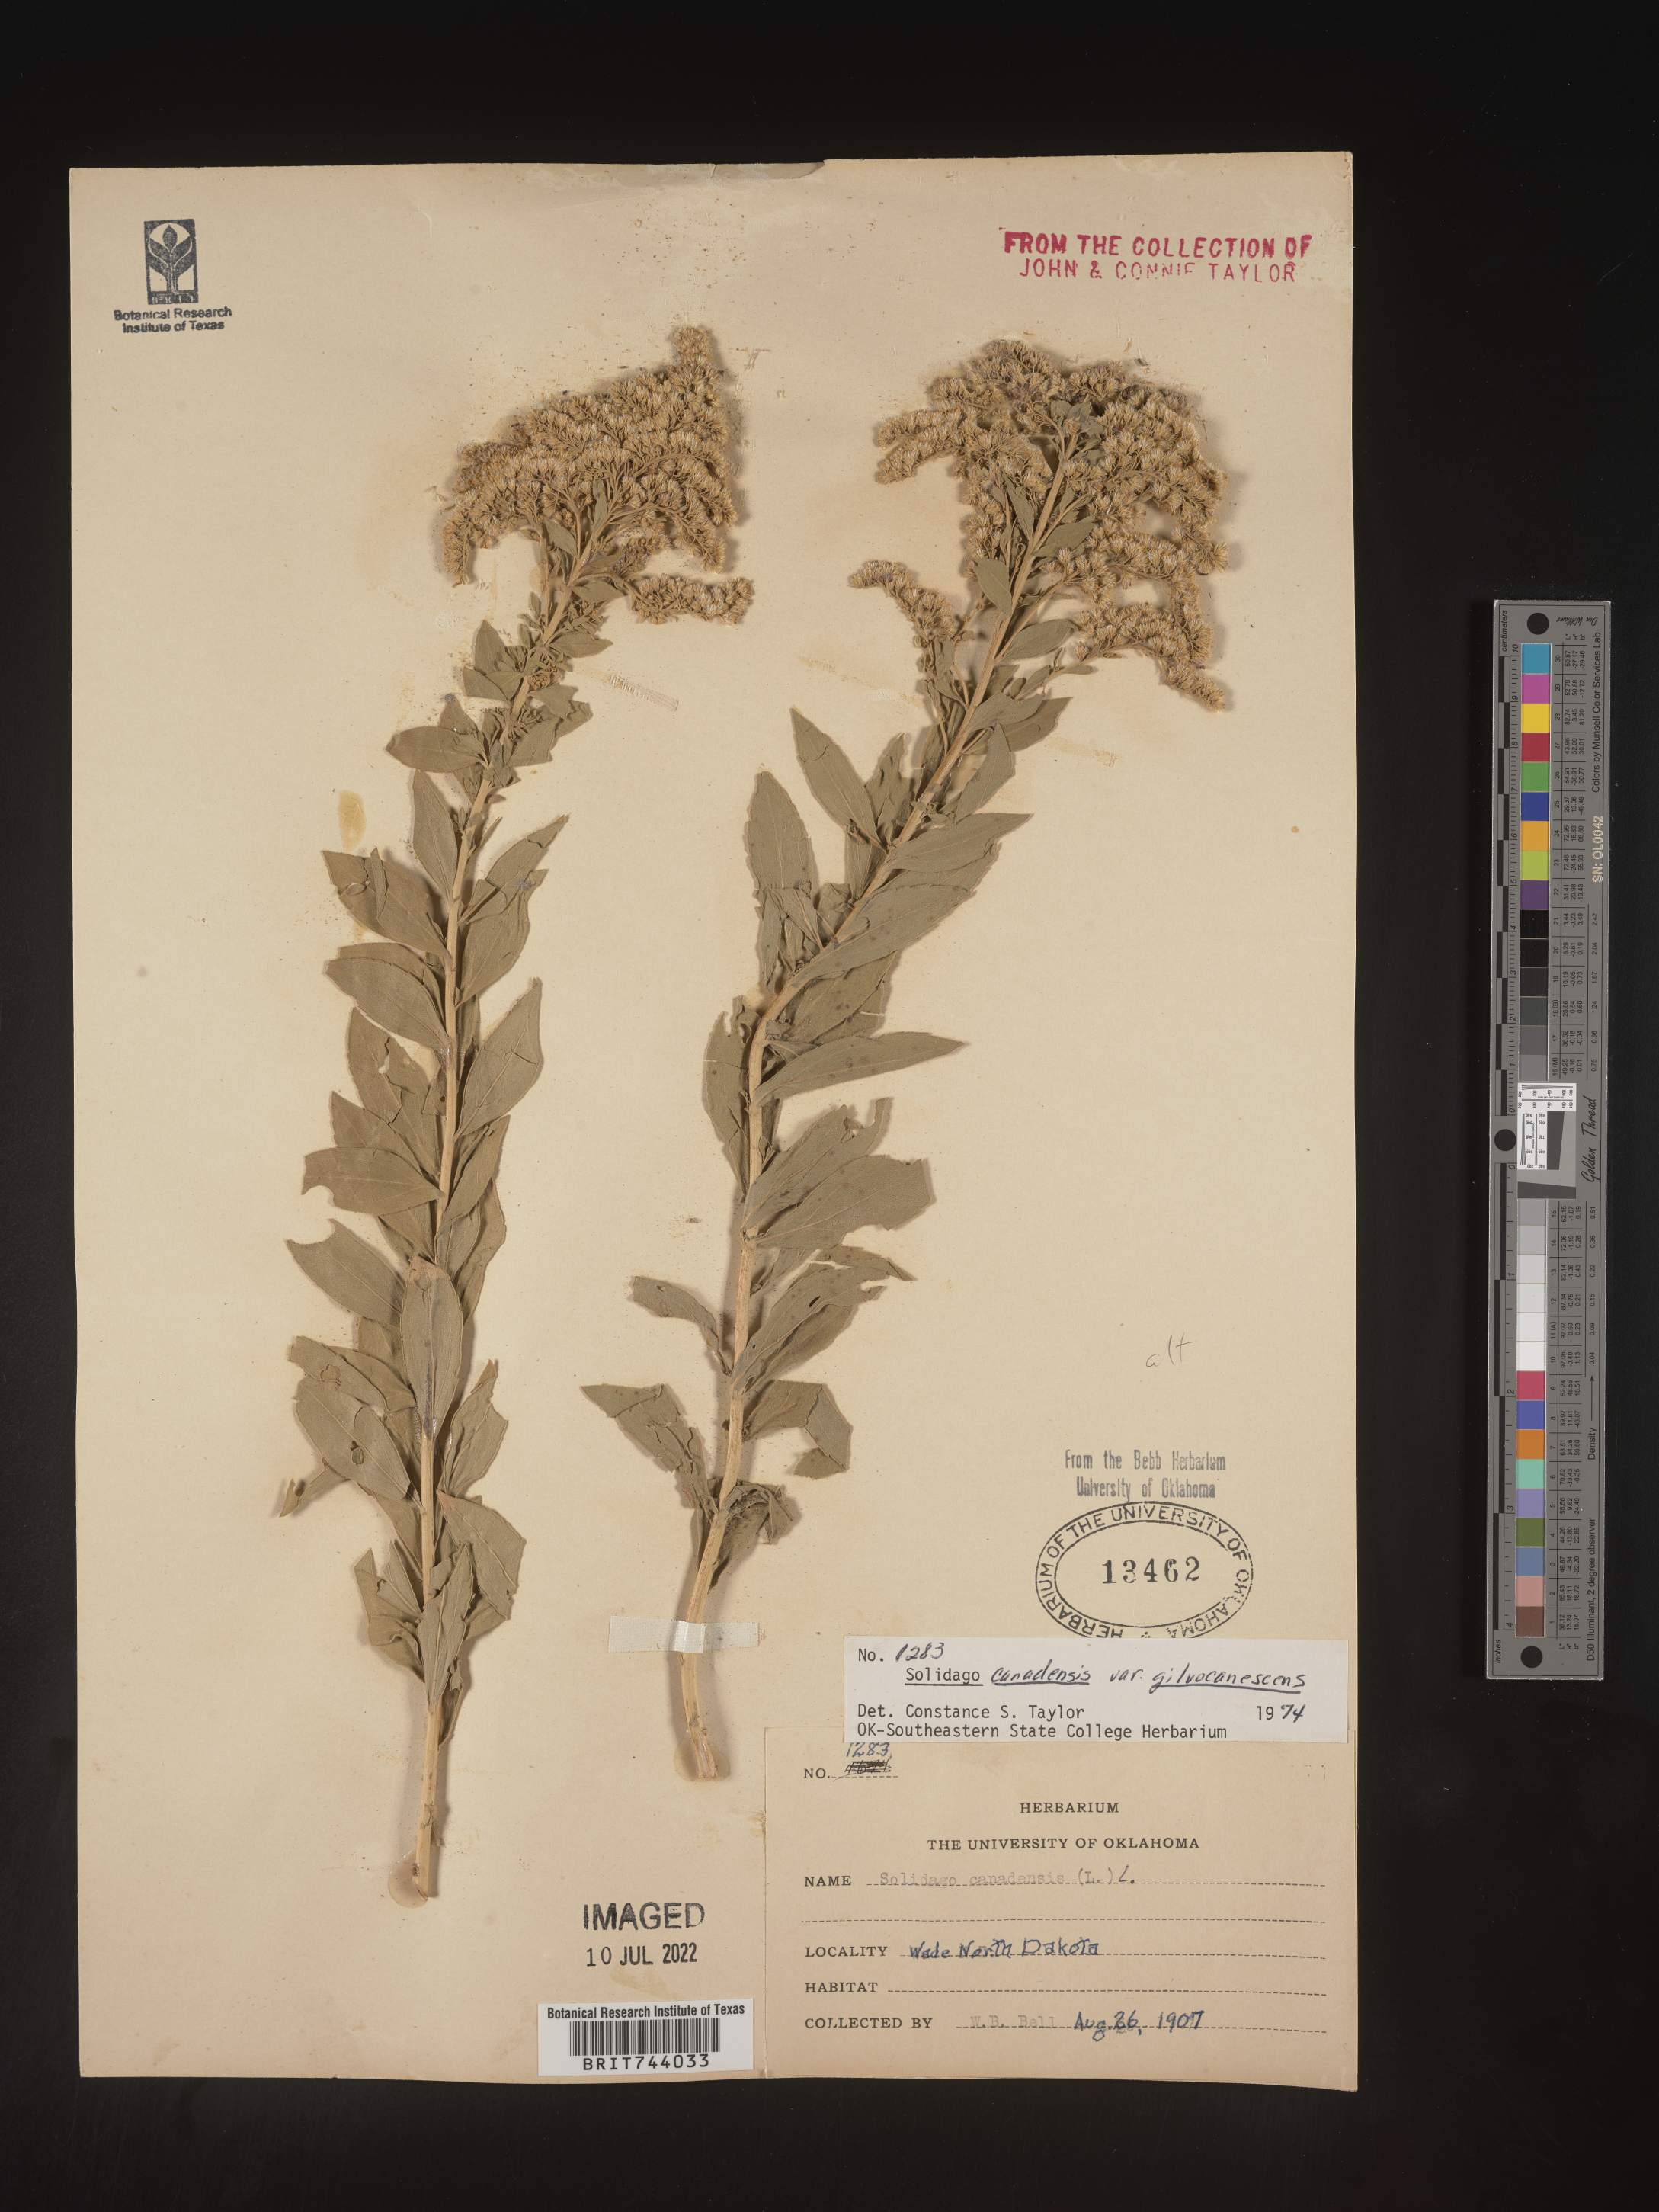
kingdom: Plantae
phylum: Tracheophyta
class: Magnoliopsida
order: Asterales
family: Asteraceae
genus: Solidago
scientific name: Solidago altissima
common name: Late goldenrod
